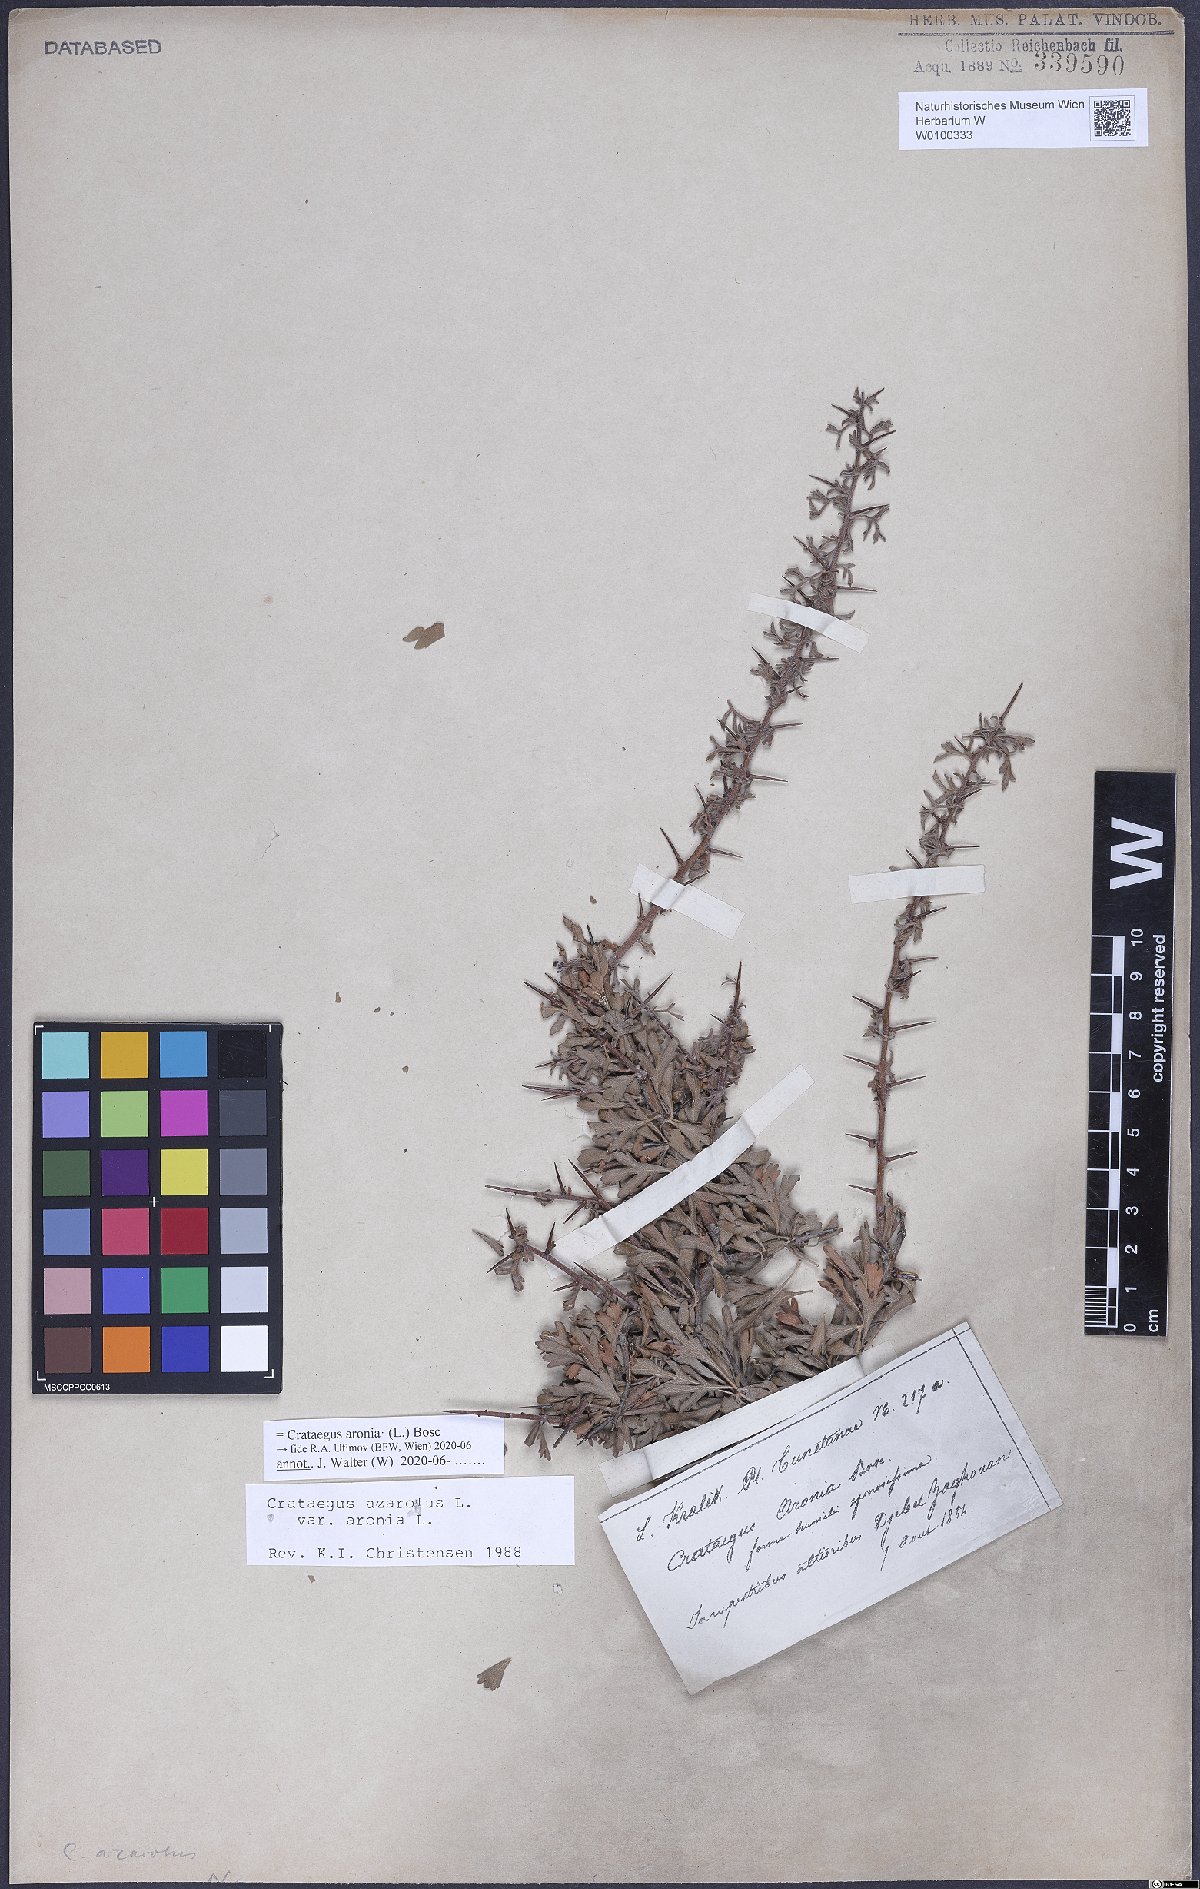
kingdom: Plantae
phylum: Tracheophyta
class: Magnoliopsida
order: Rosales
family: Rosaceae
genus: Crataegus
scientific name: Crataegus azarolus
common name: Azarole
